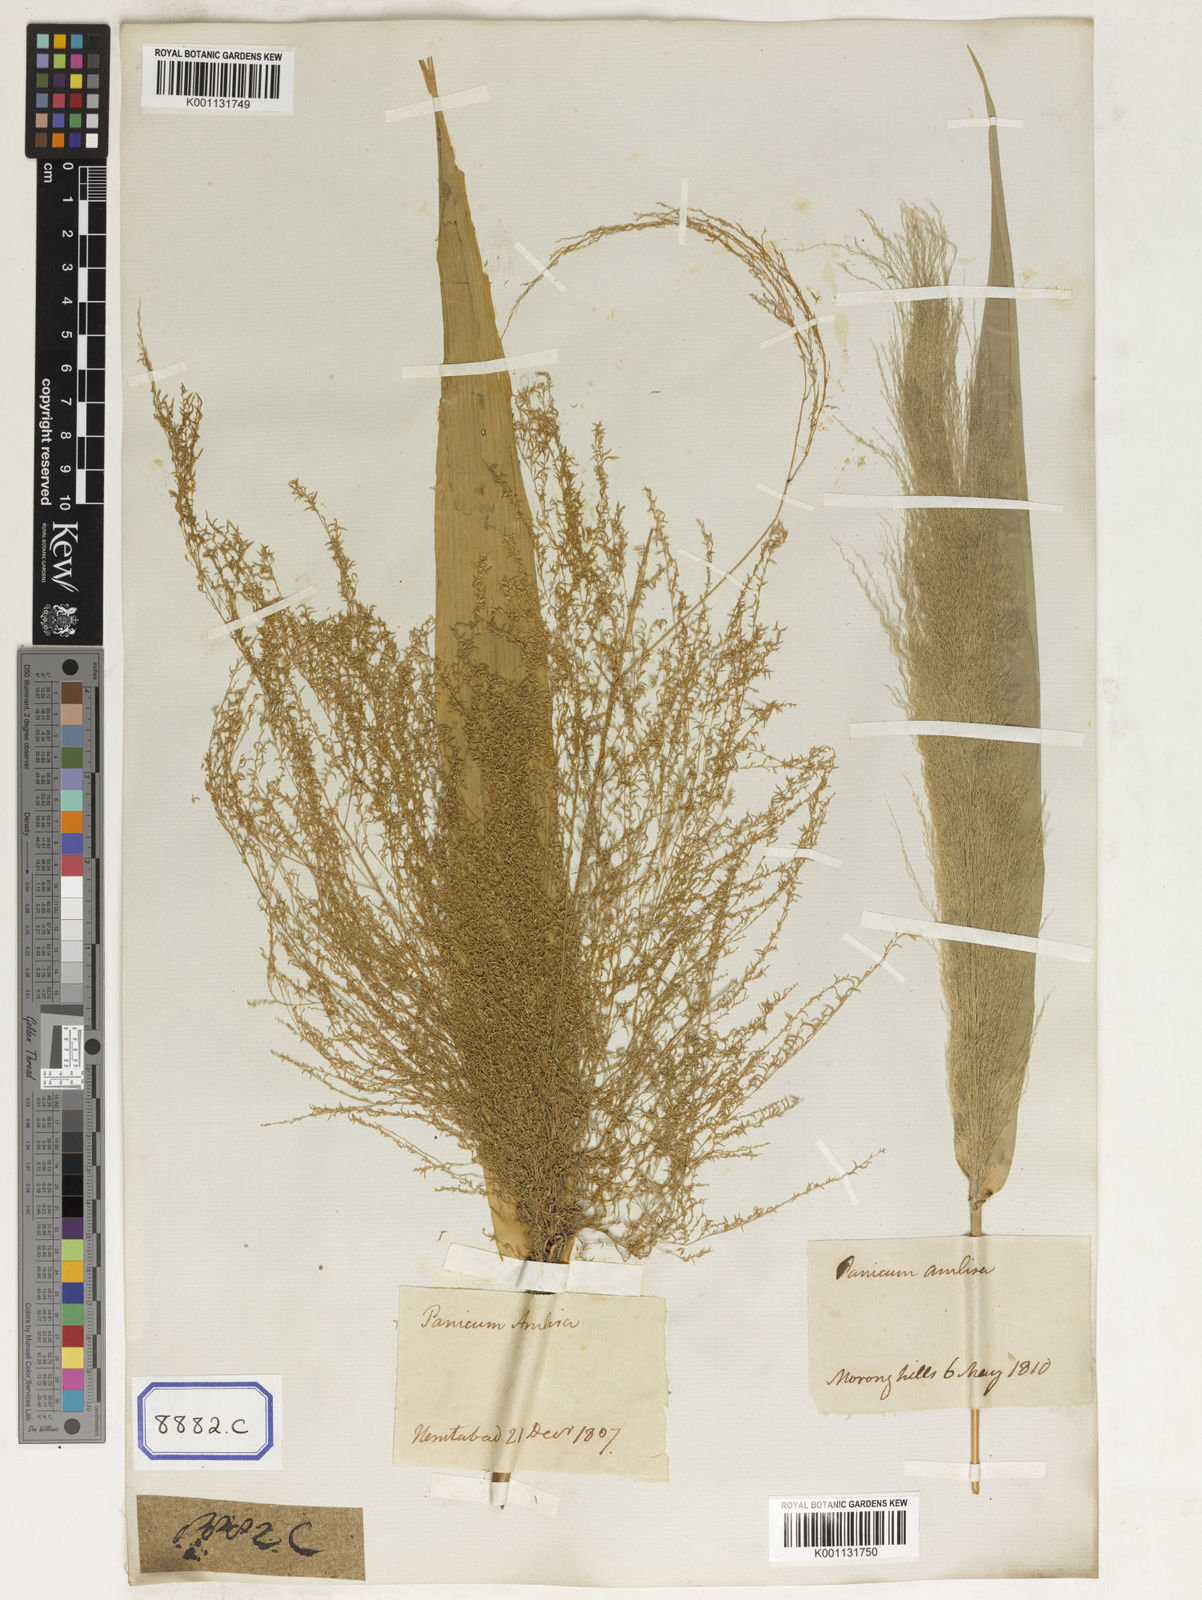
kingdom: Plantae
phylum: Tracheophyta
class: Liliopsida
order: Poales
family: Poaceae
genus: Thysanolaena
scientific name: Thysanolaena latifolia
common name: Tiger grass
